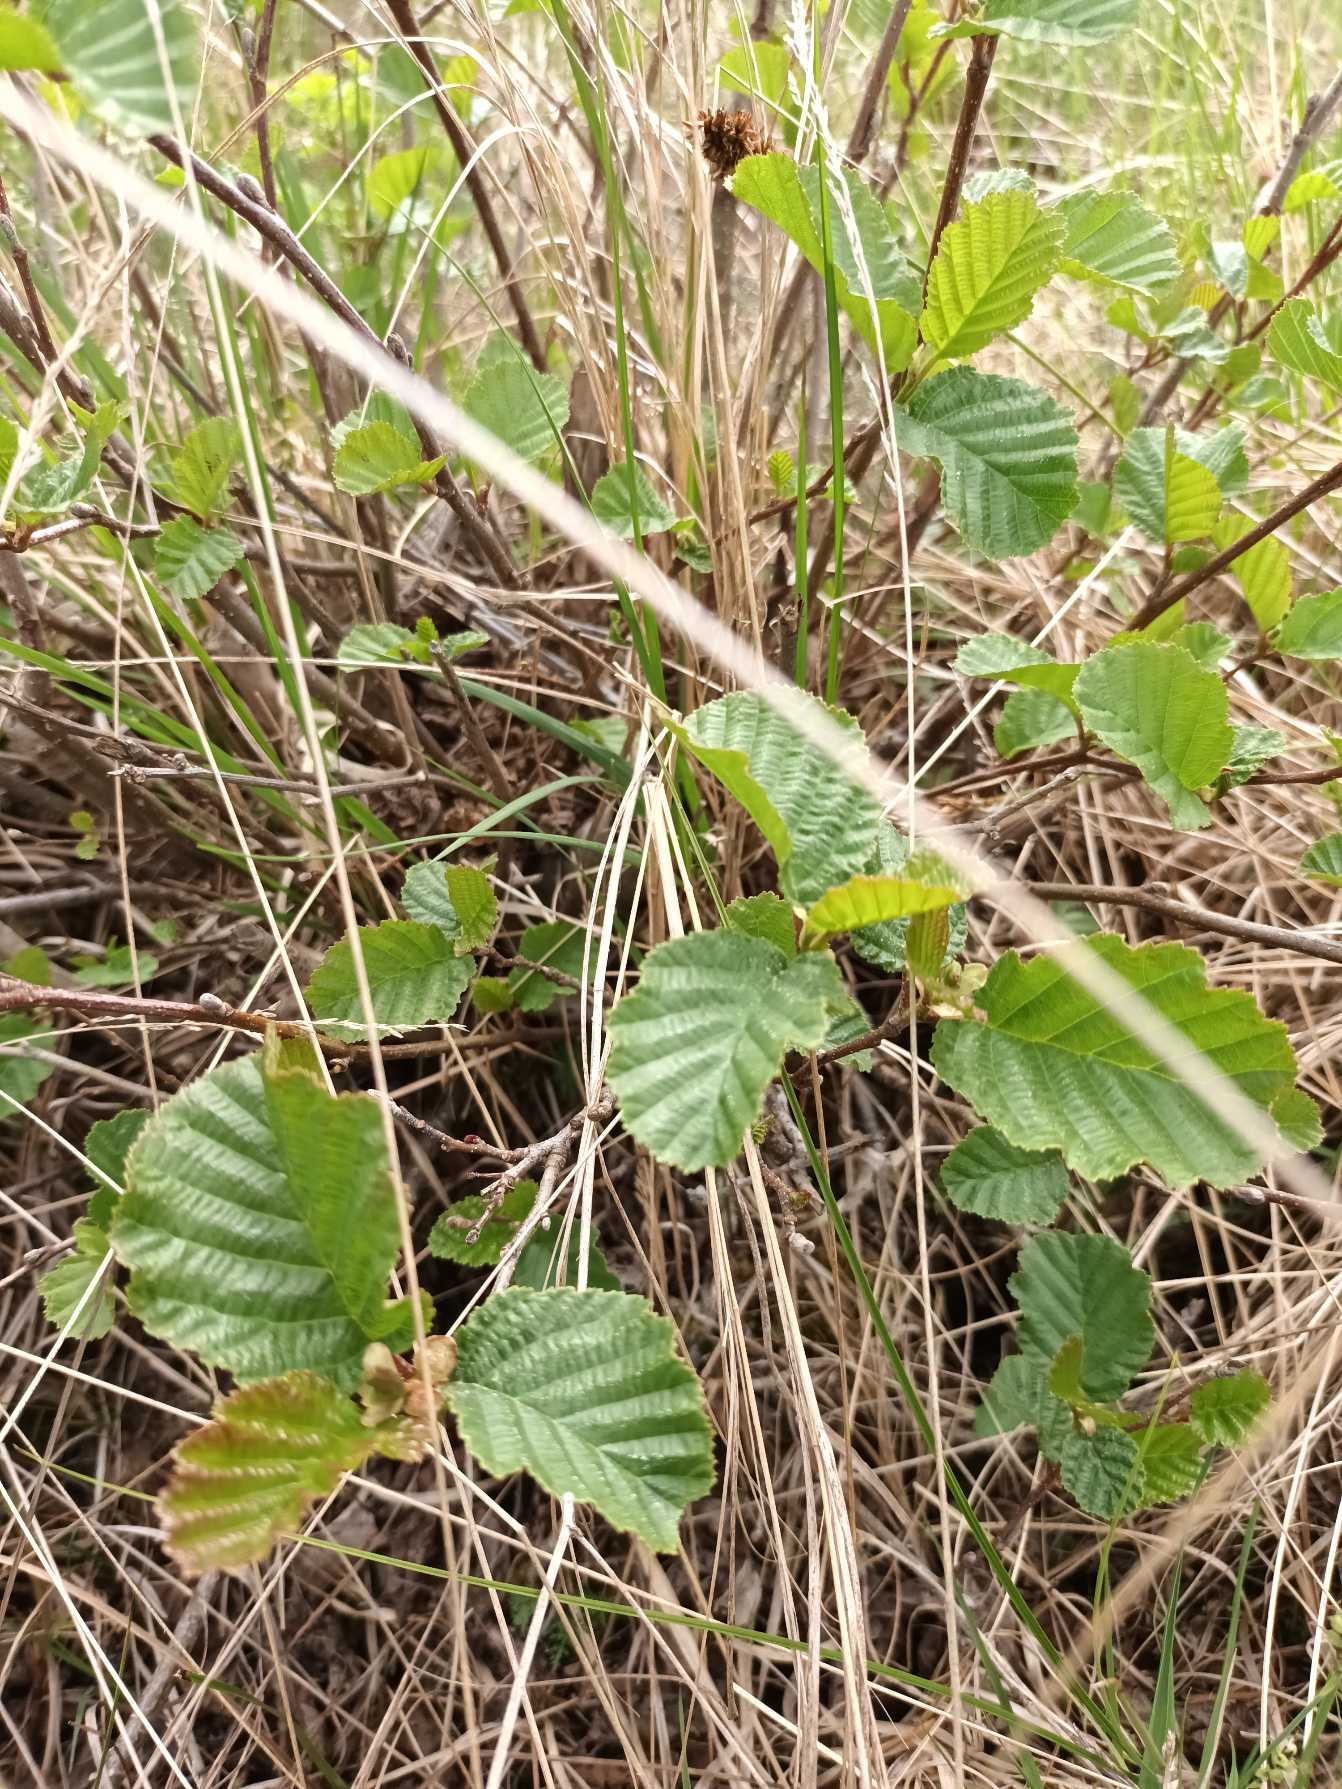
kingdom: Plantae
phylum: Tracheophyta
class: Magnoliopsida
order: Fagales
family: Betulaceae
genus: Alnus
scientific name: Alnus glutinosa
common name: Rød-el
